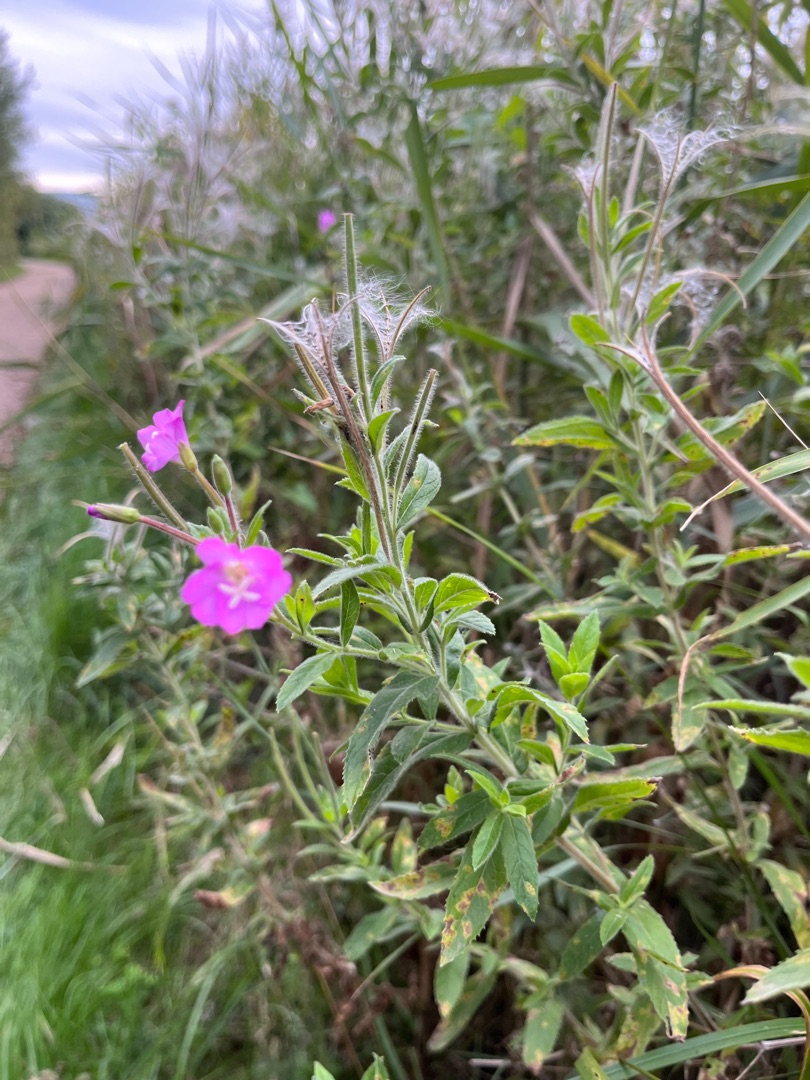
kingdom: Plantae
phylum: Tracheophyta
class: Magnoliopsida
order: Myrtales
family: Onagraceae
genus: Epilobium
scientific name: Epilobium hirsutum
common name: Lådden dueurt
